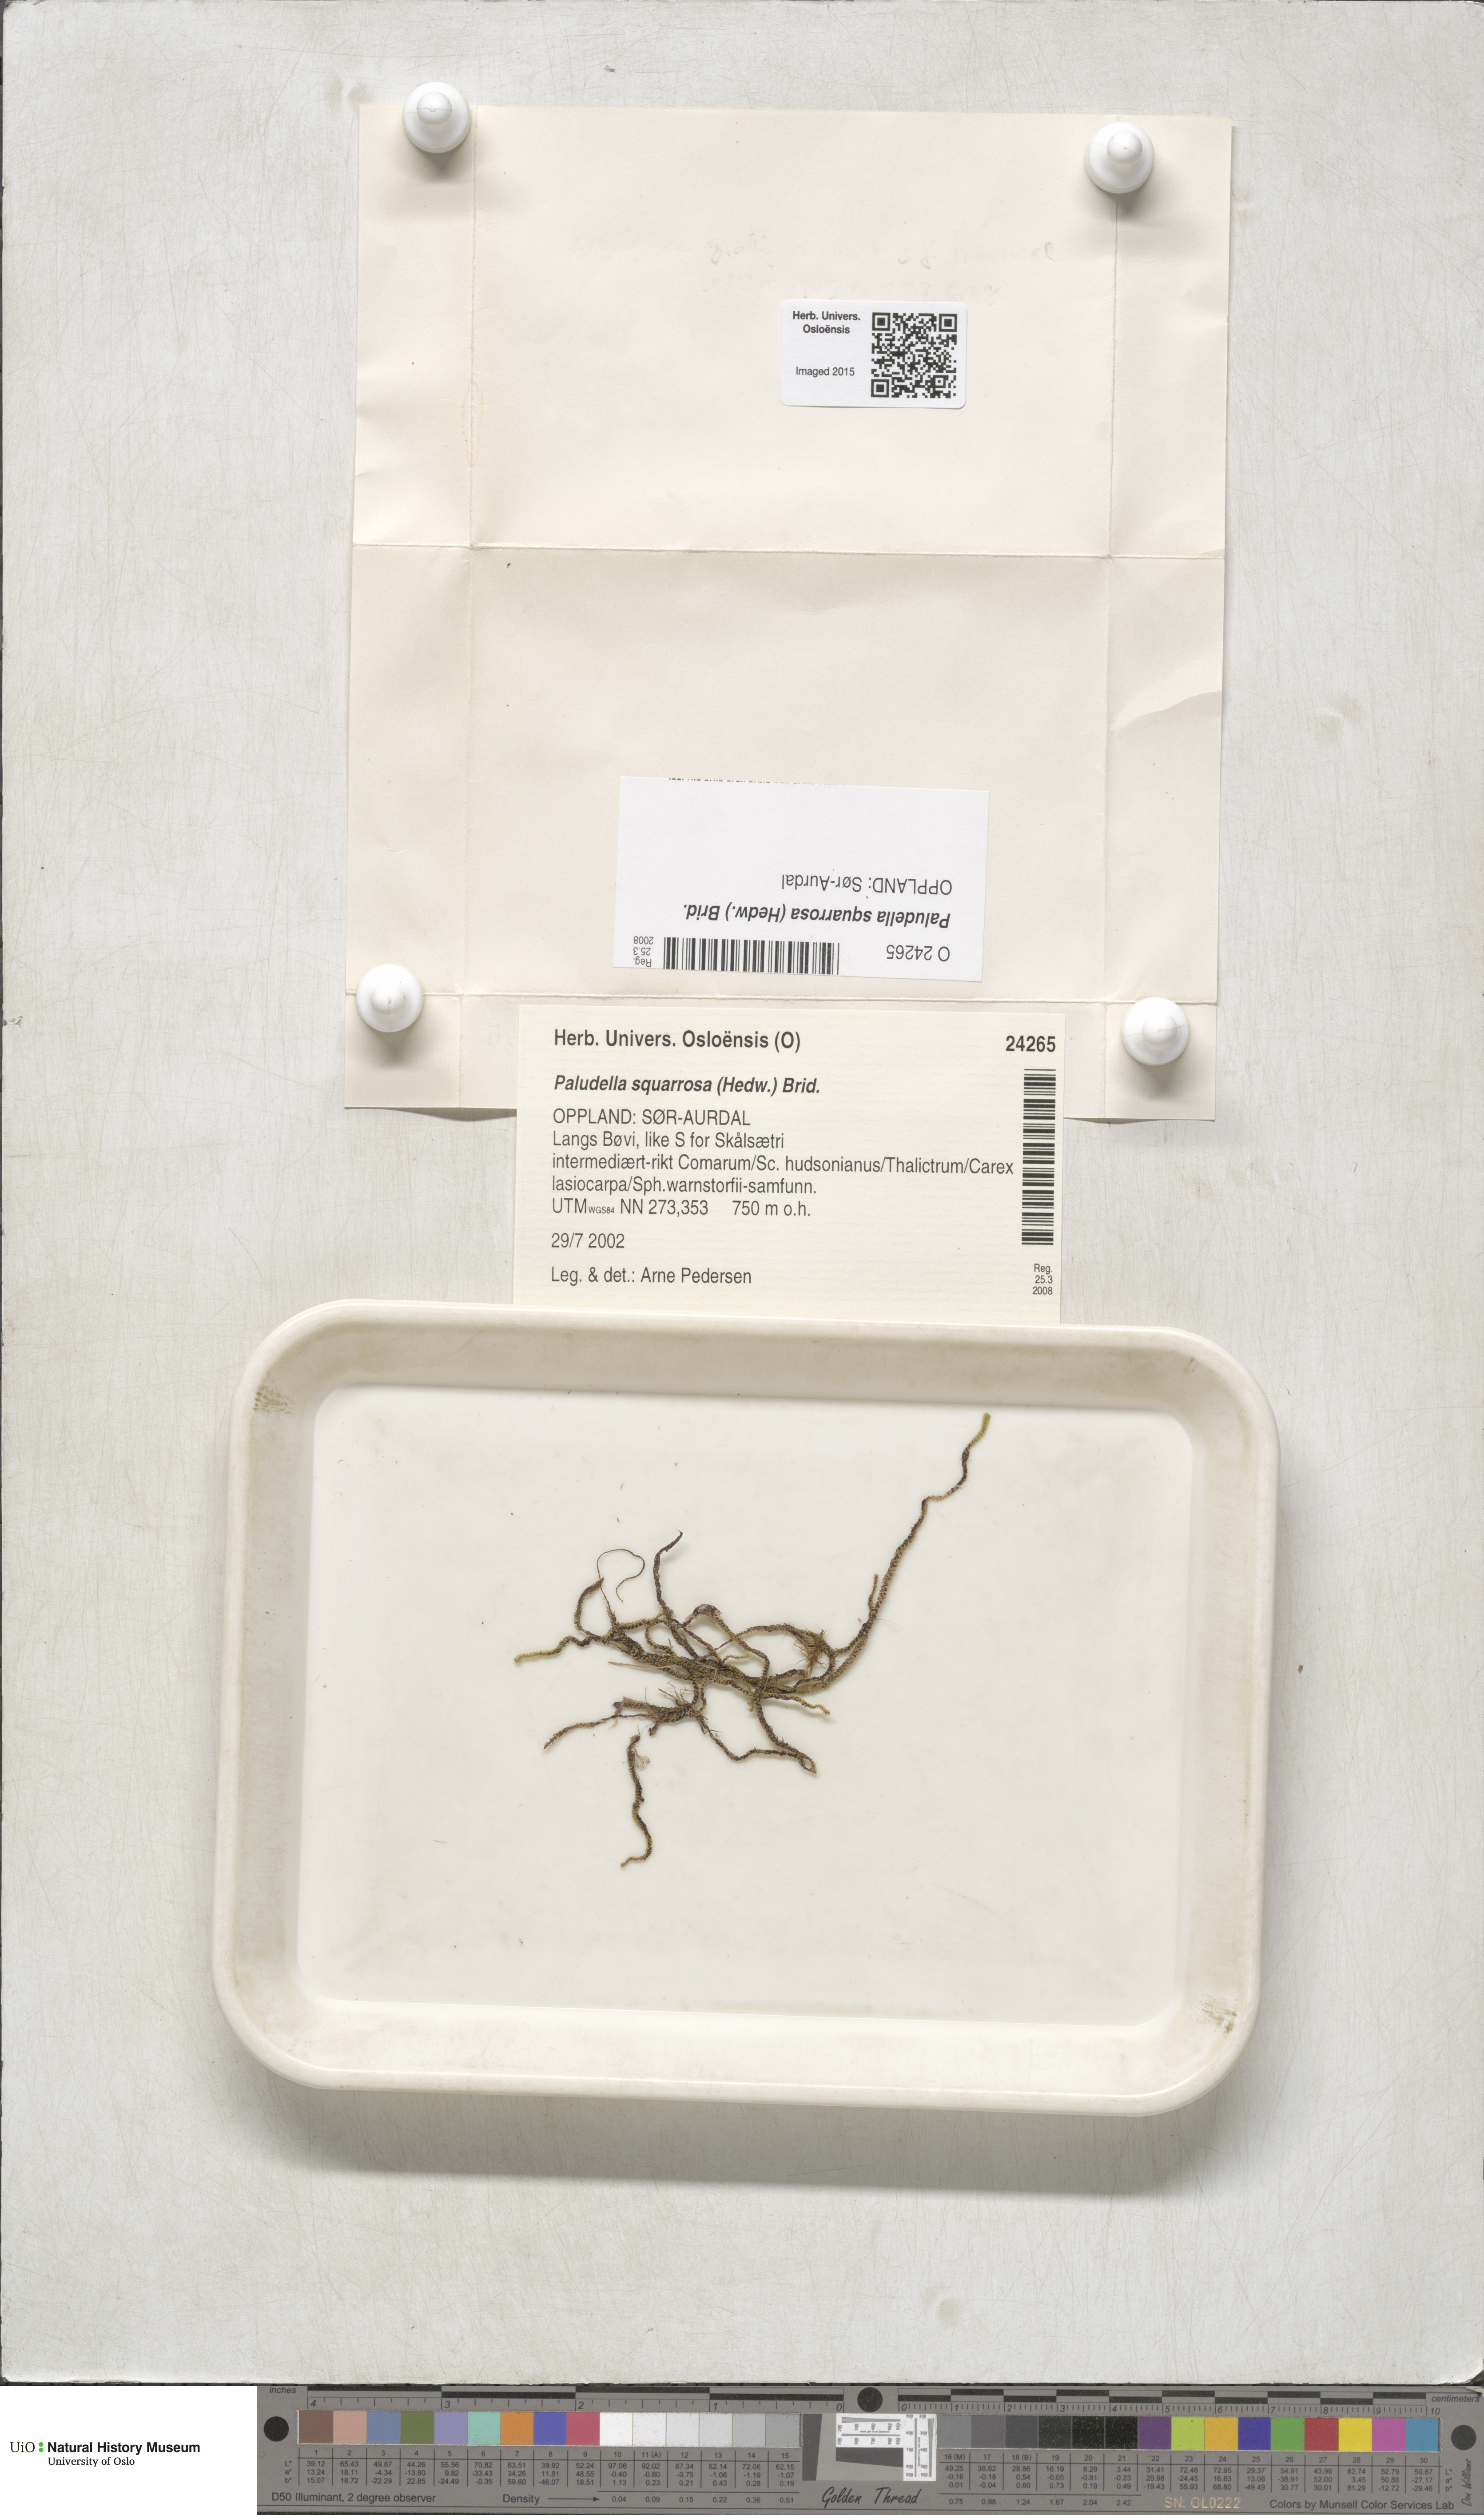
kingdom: Plantae
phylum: Bryophyta
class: Bryopsida
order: Splachnales
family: Meesiaceae
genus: Paludella
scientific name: Paludella squarrosa
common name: Tufted fen moss
